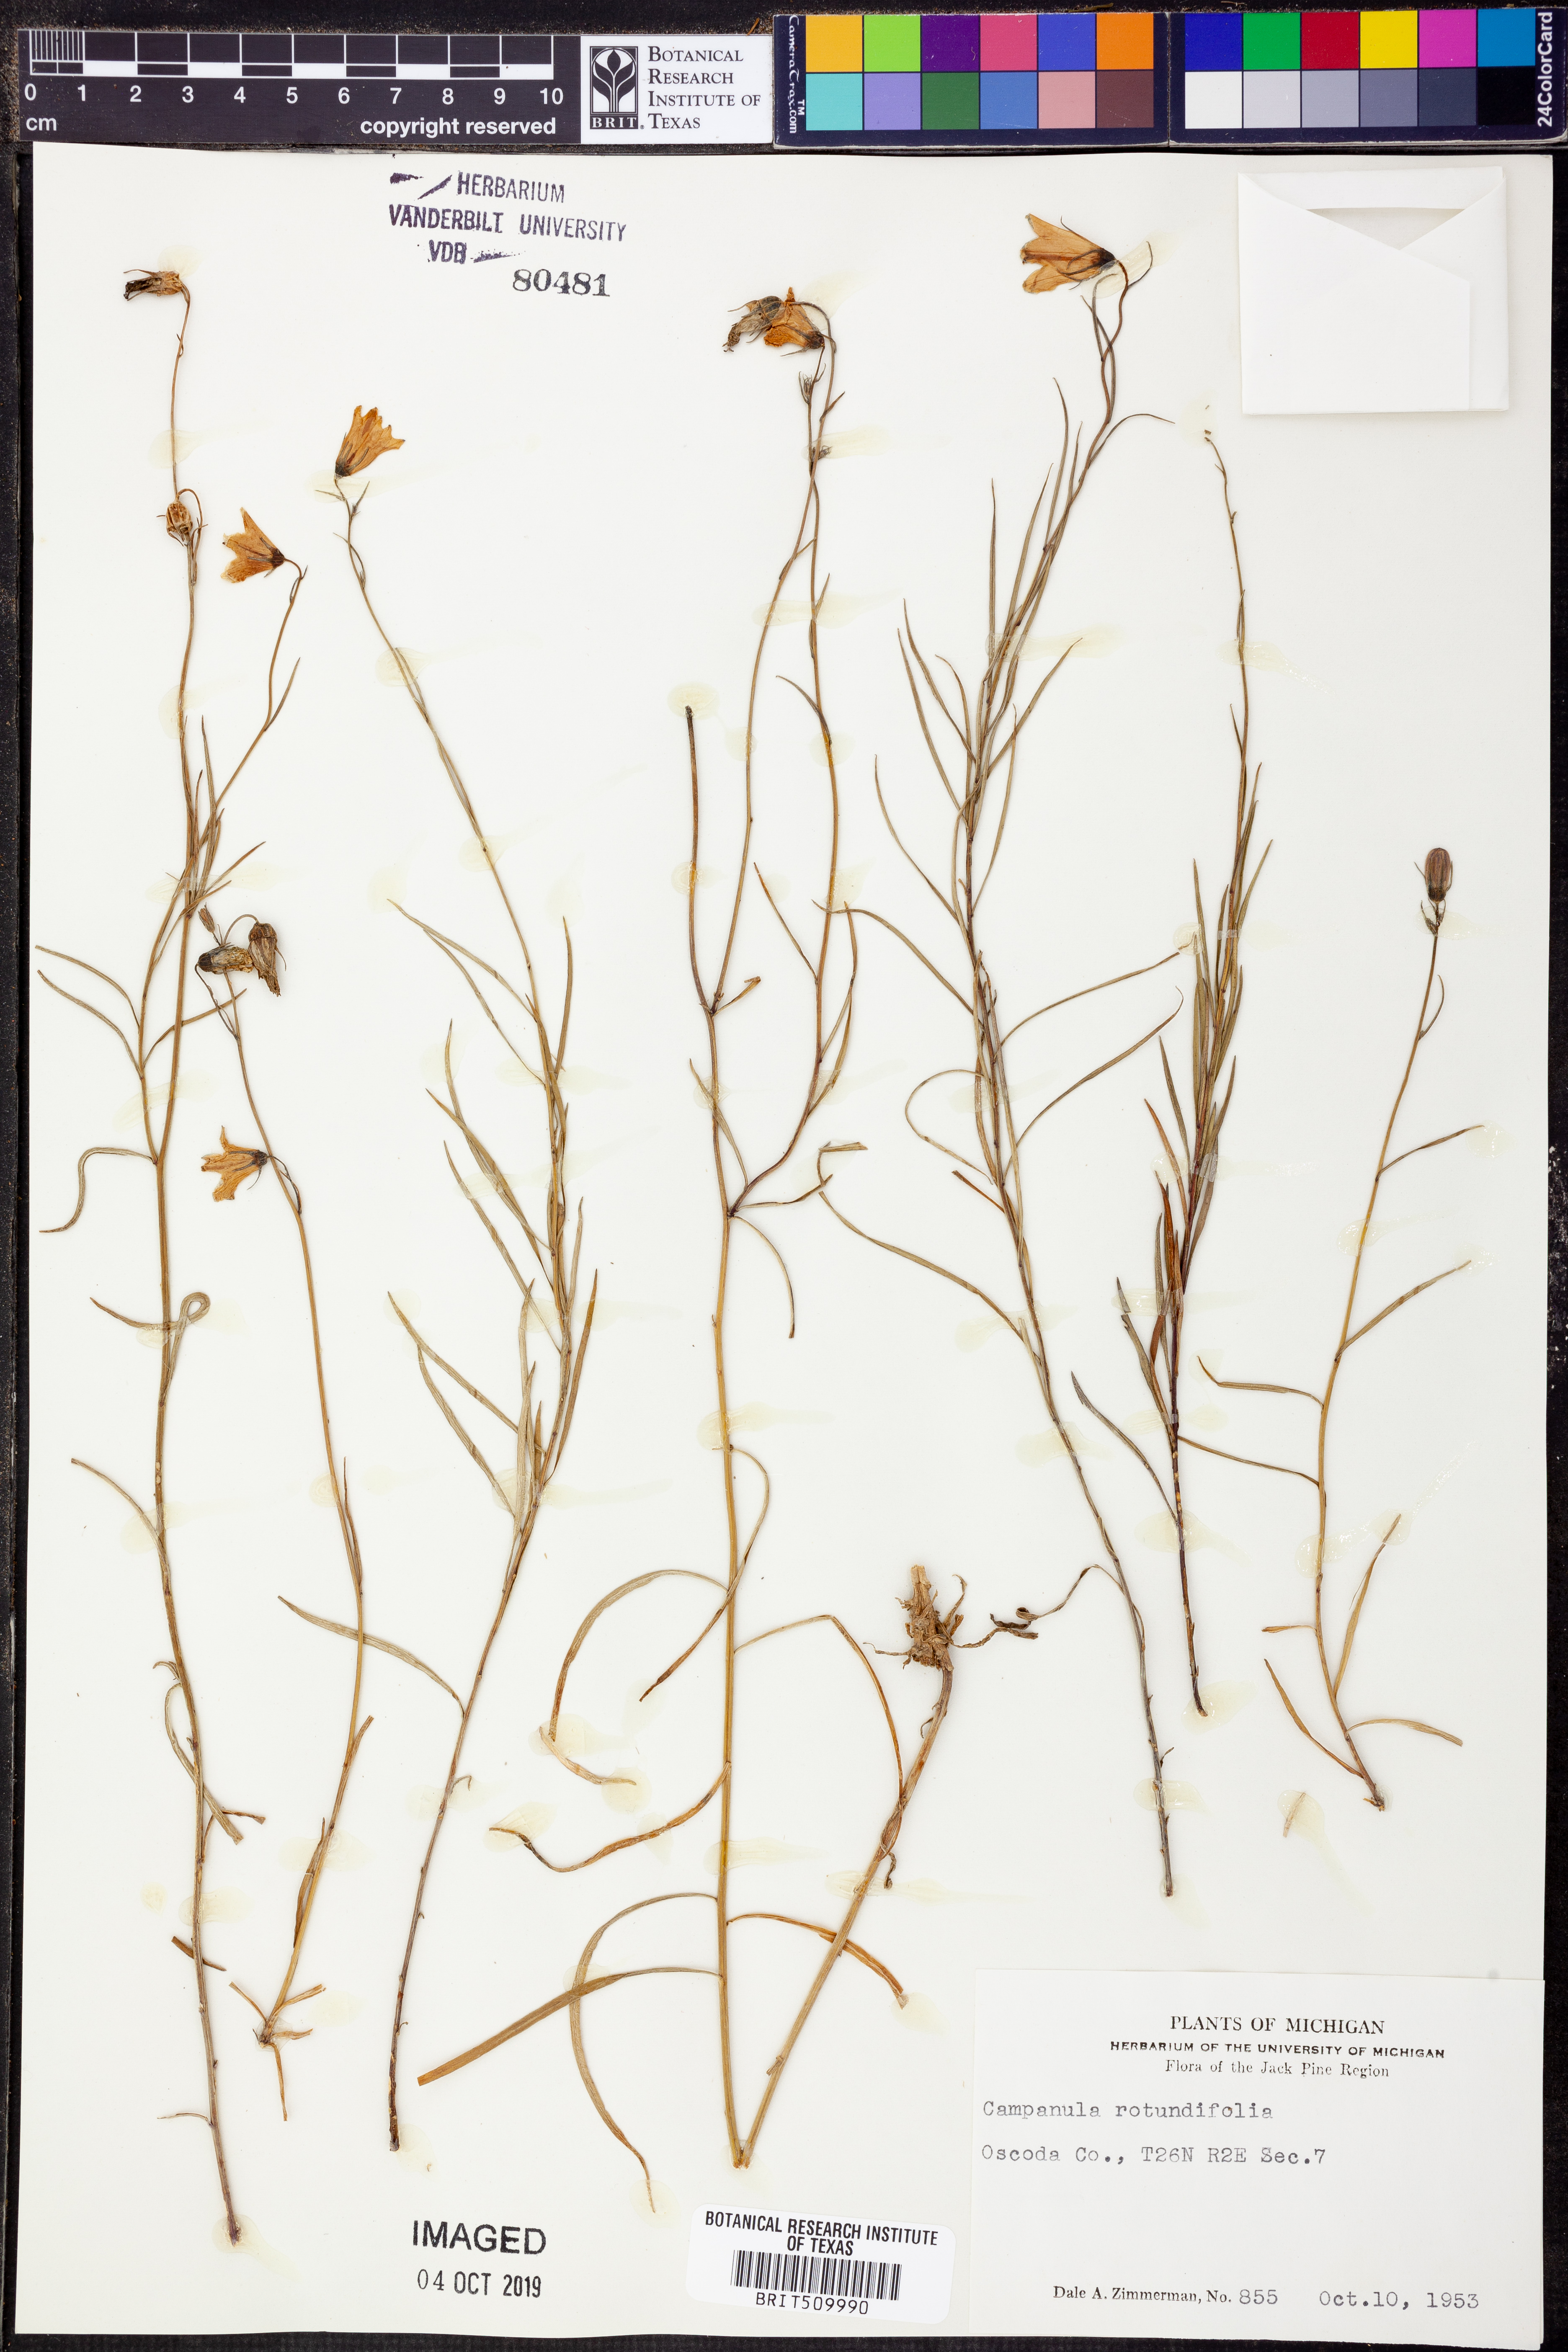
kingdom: Plantae
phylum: Tracheophyta
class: Magnoliopsida
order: Asterales
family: Campanulaceae
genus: Campanula
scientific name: Campanula rotundifolia
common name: Harebell
